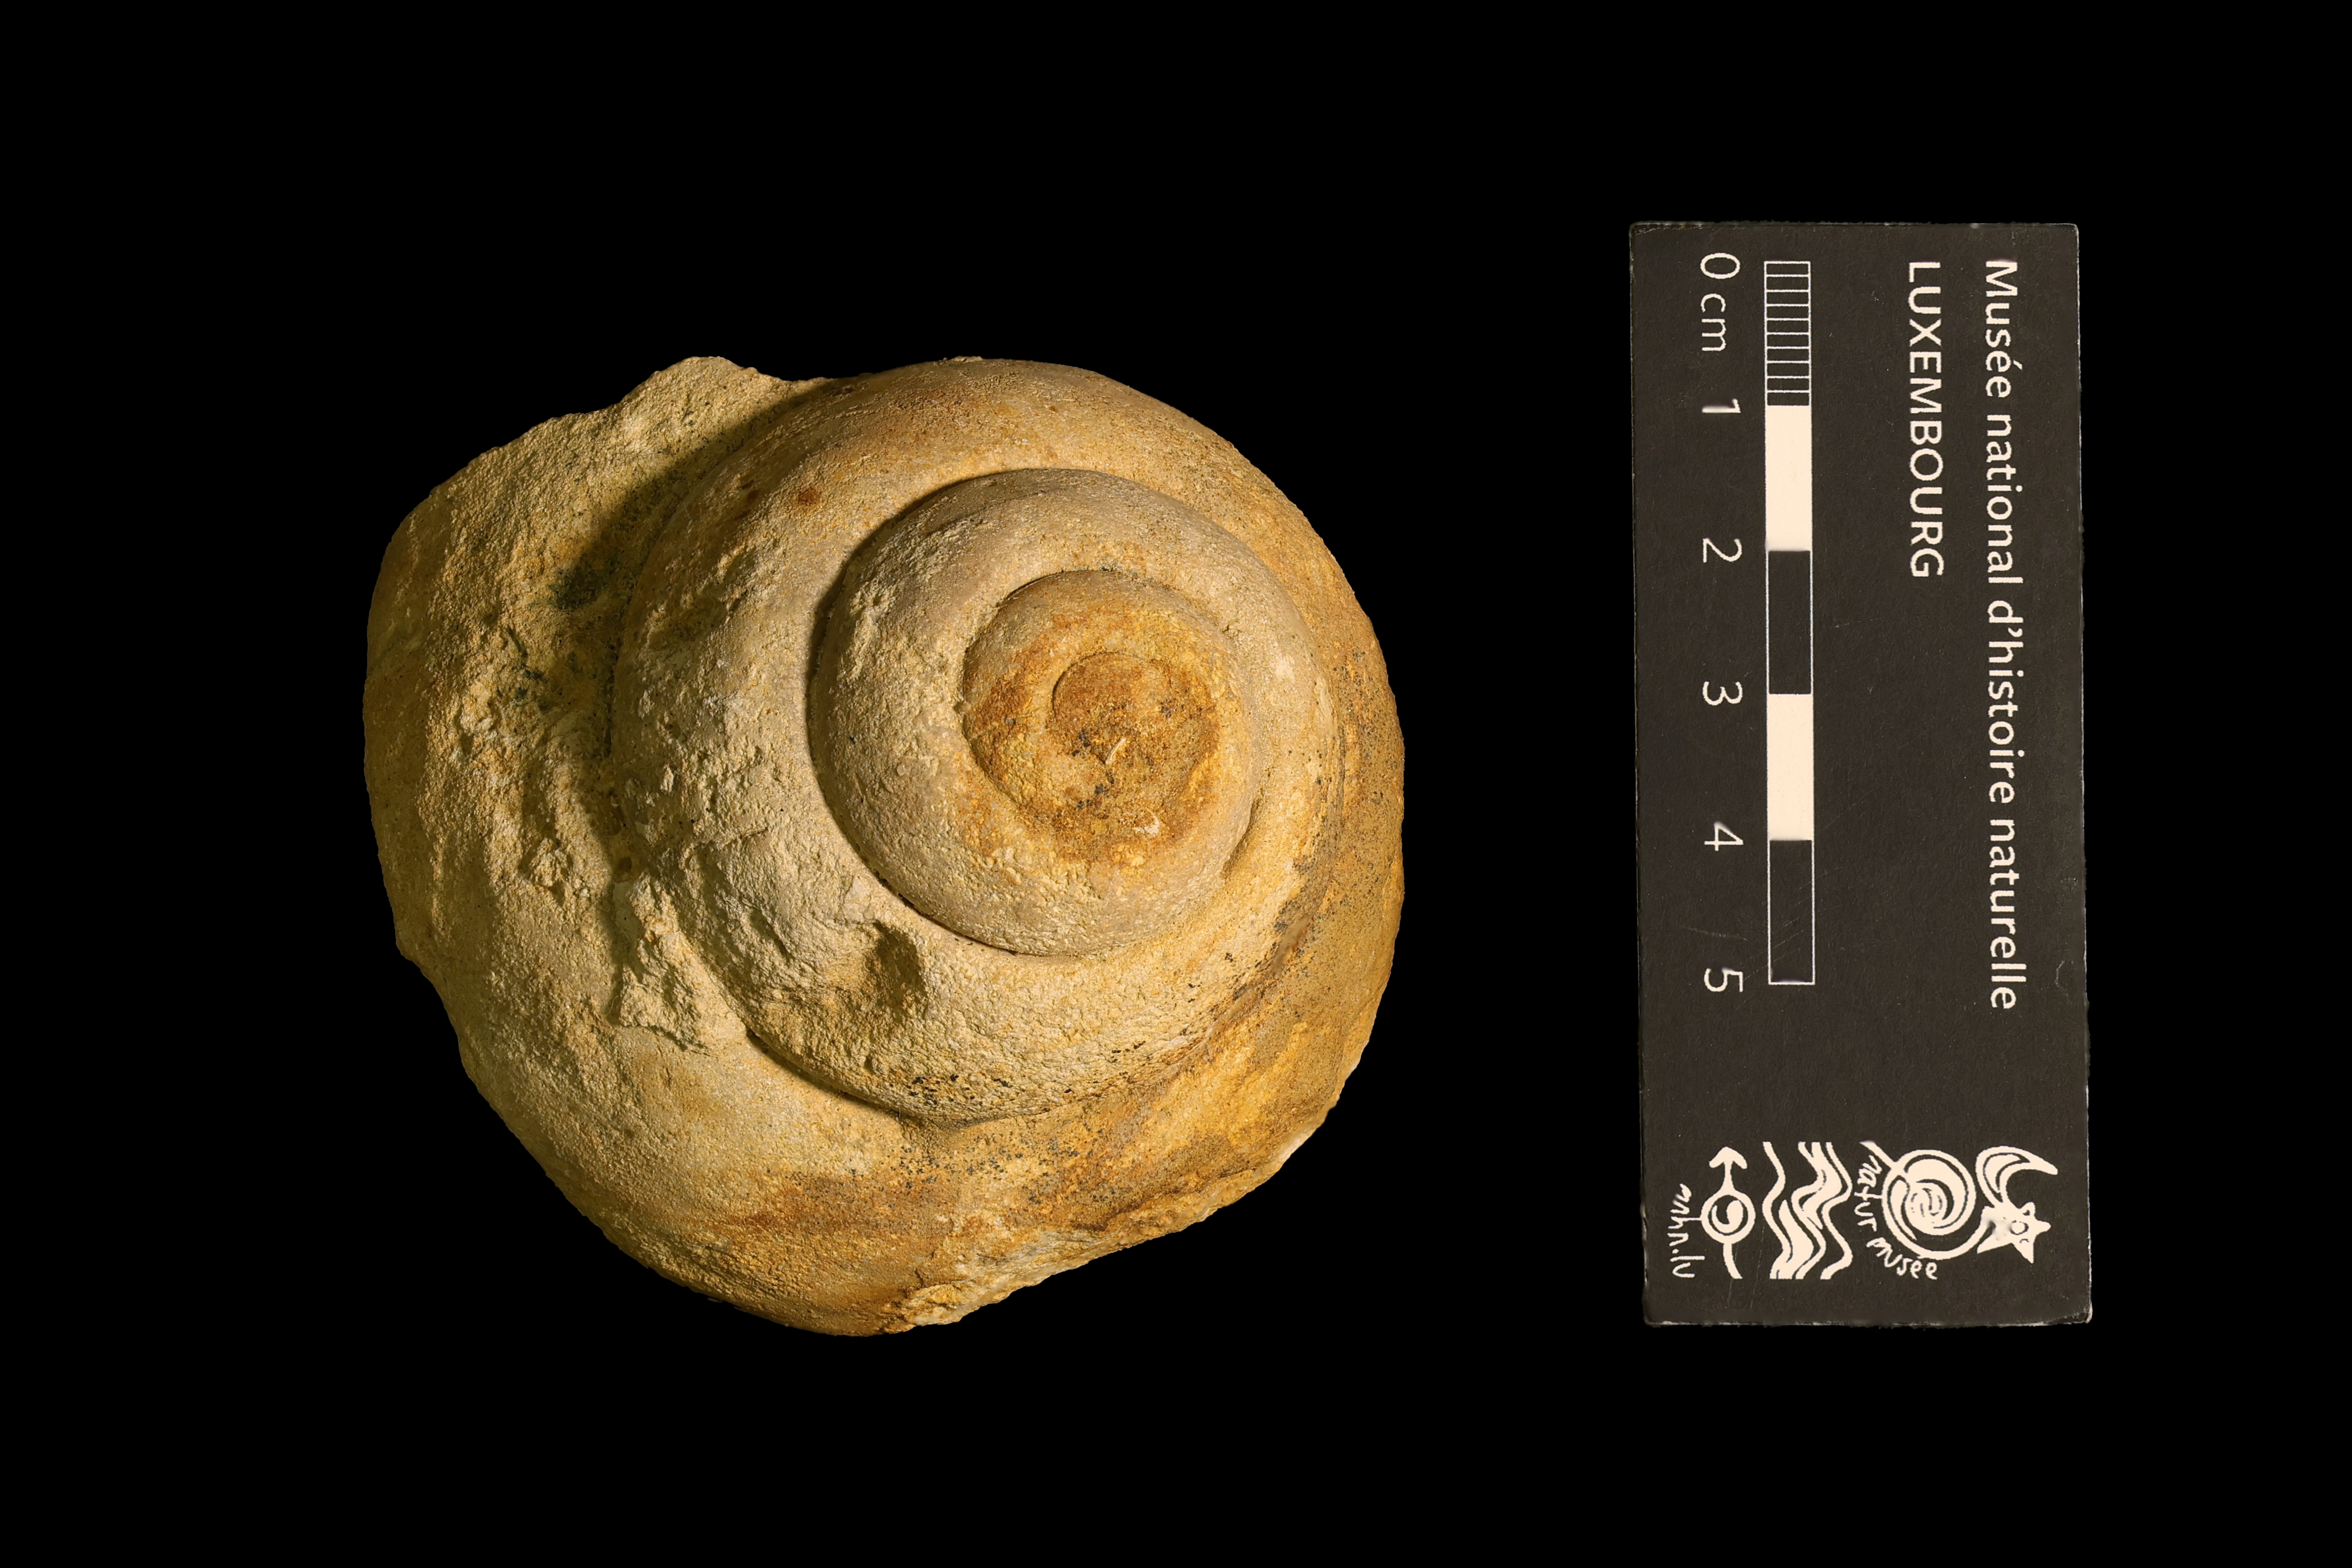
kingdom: Animalia
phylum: Mollusca
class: Gastropoda
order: Pleurotomariida
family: Pleurotomariidae
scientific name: Pleurotomariidae
